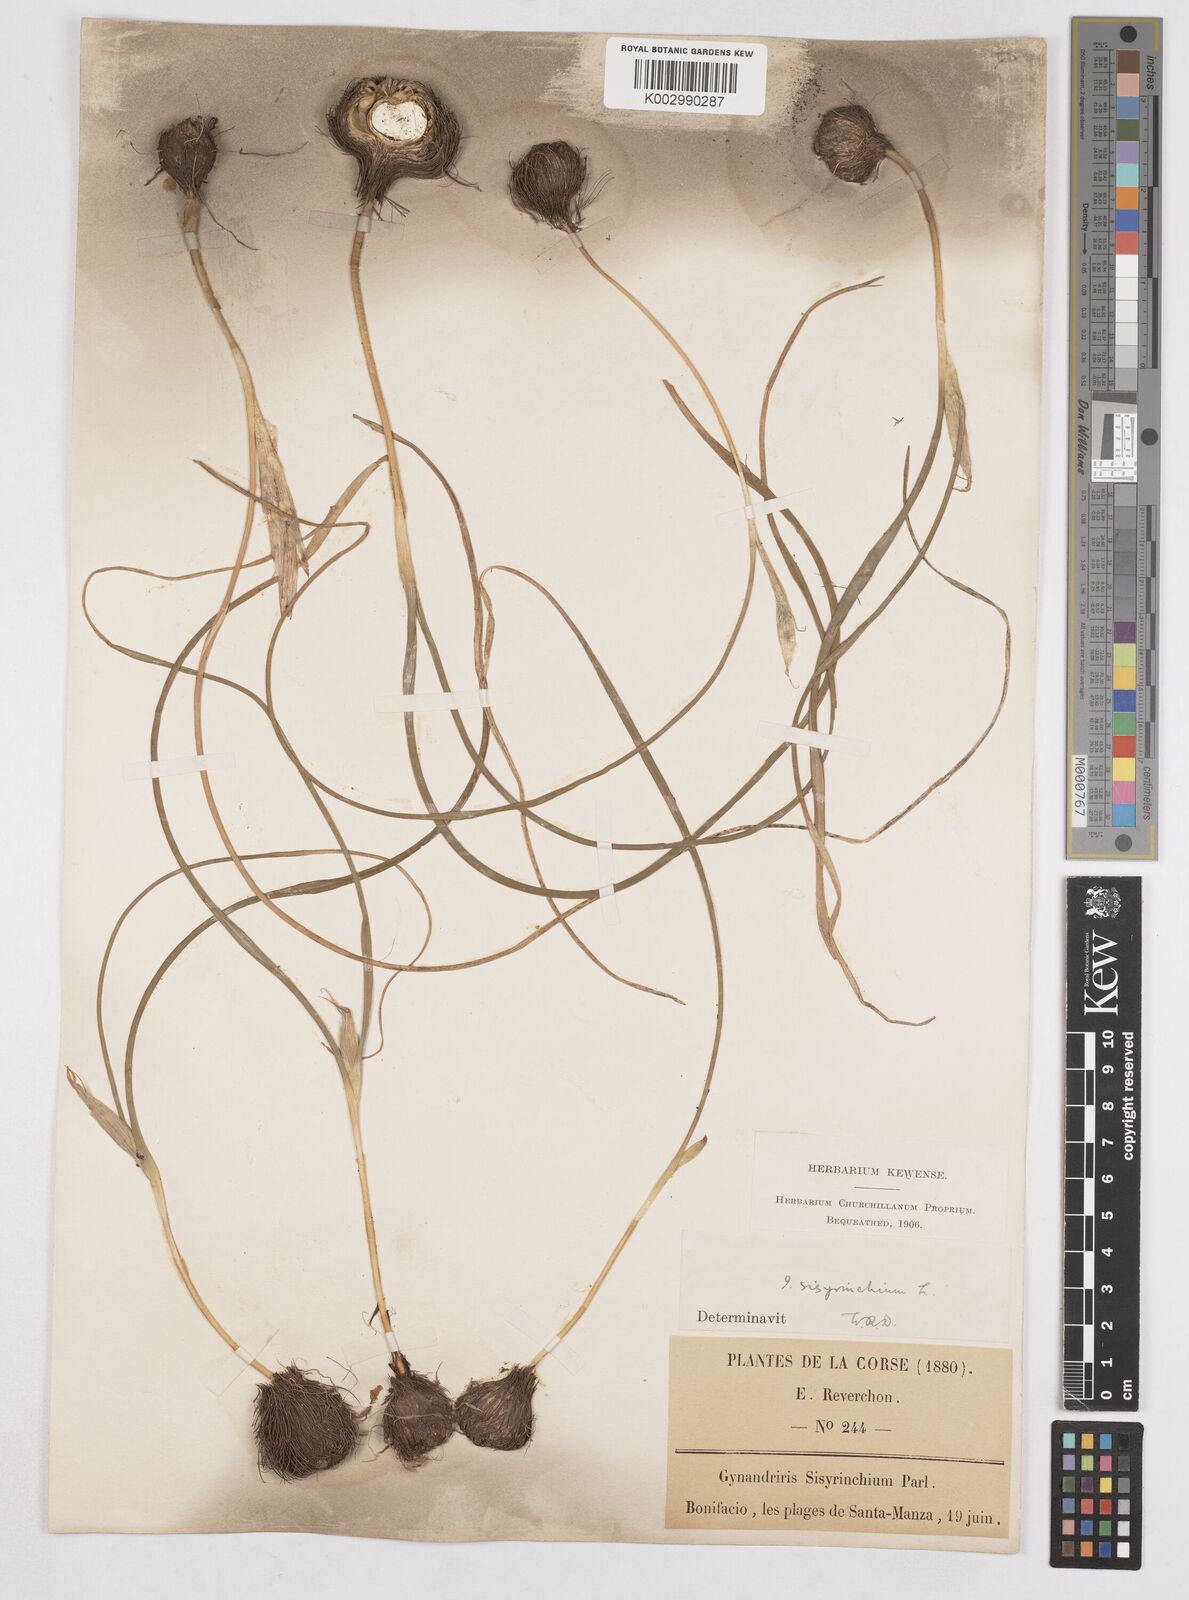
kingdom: Plantae
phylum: Tracheophyta
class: Liliopsida
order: Asparagales
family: Iridaceae
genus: Moraea
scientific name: Moraea sisyrinchium
